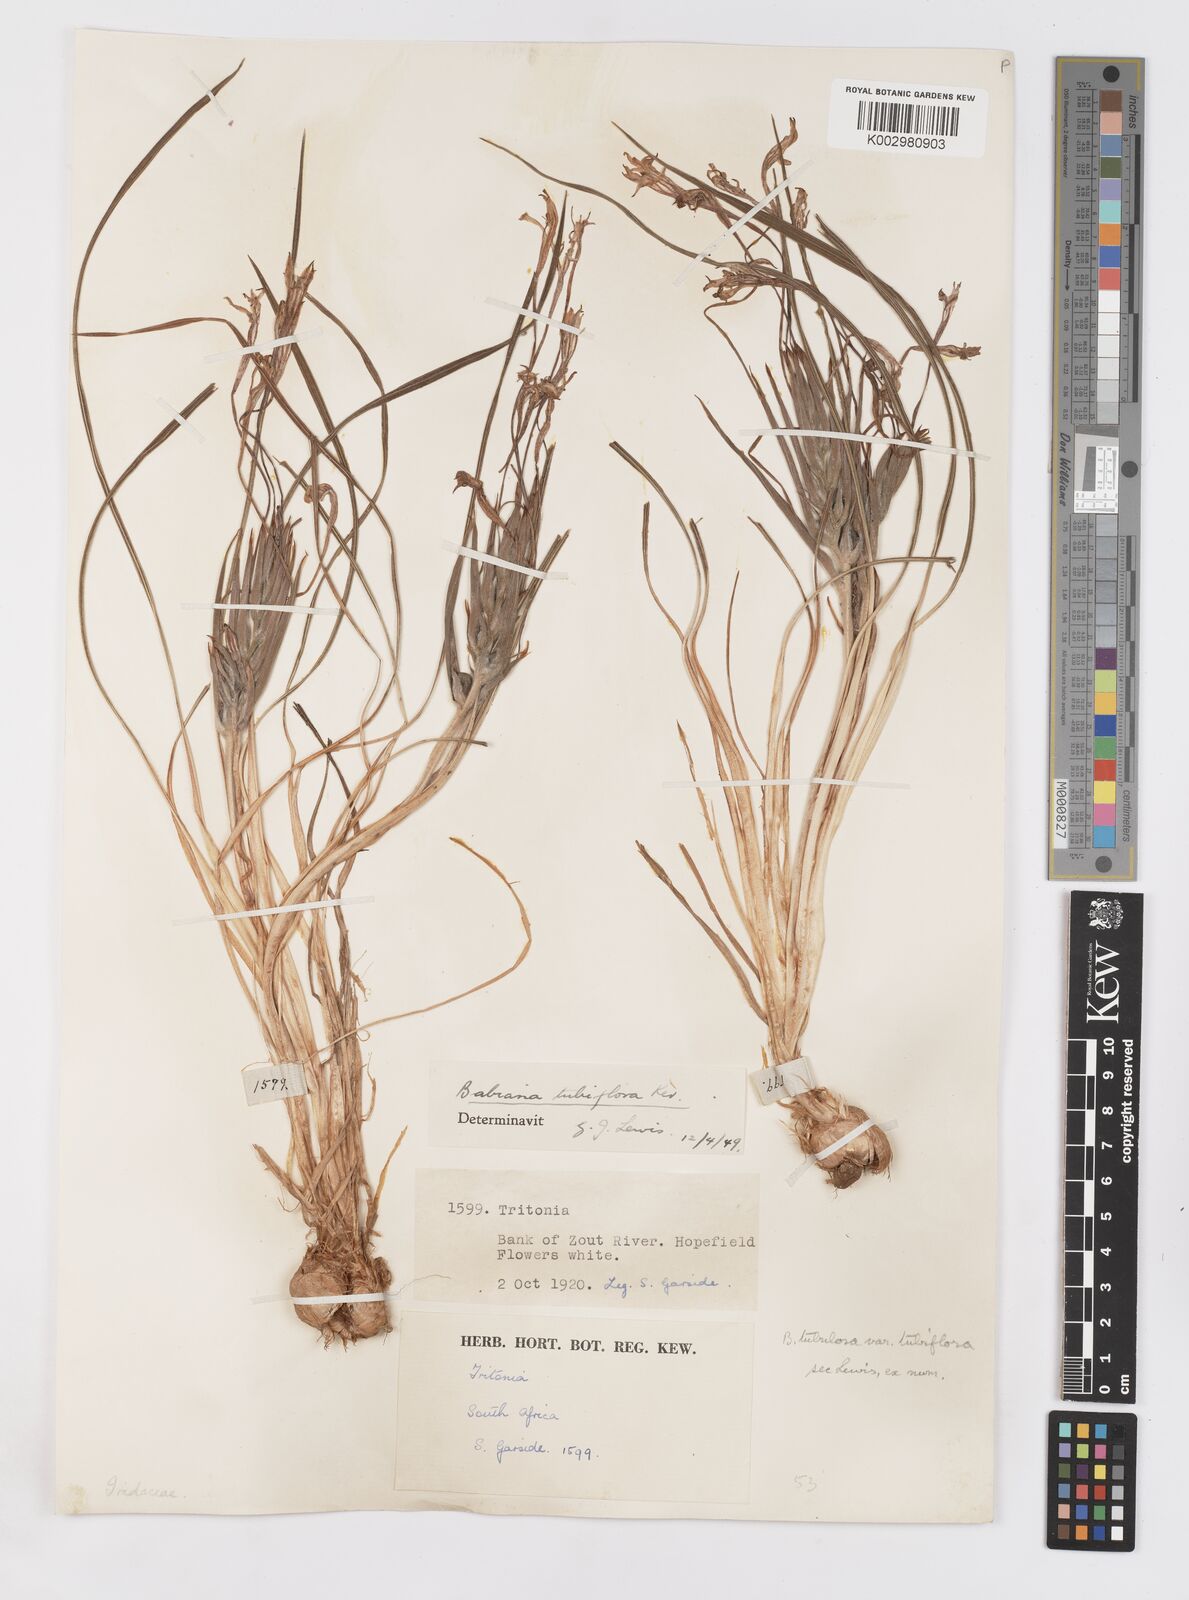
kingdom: Plantae
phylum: Tracheophyta
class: Liliopsida
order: Asparagales
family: Iridaceae
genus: Babiana
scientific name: Babiana tubiflora
